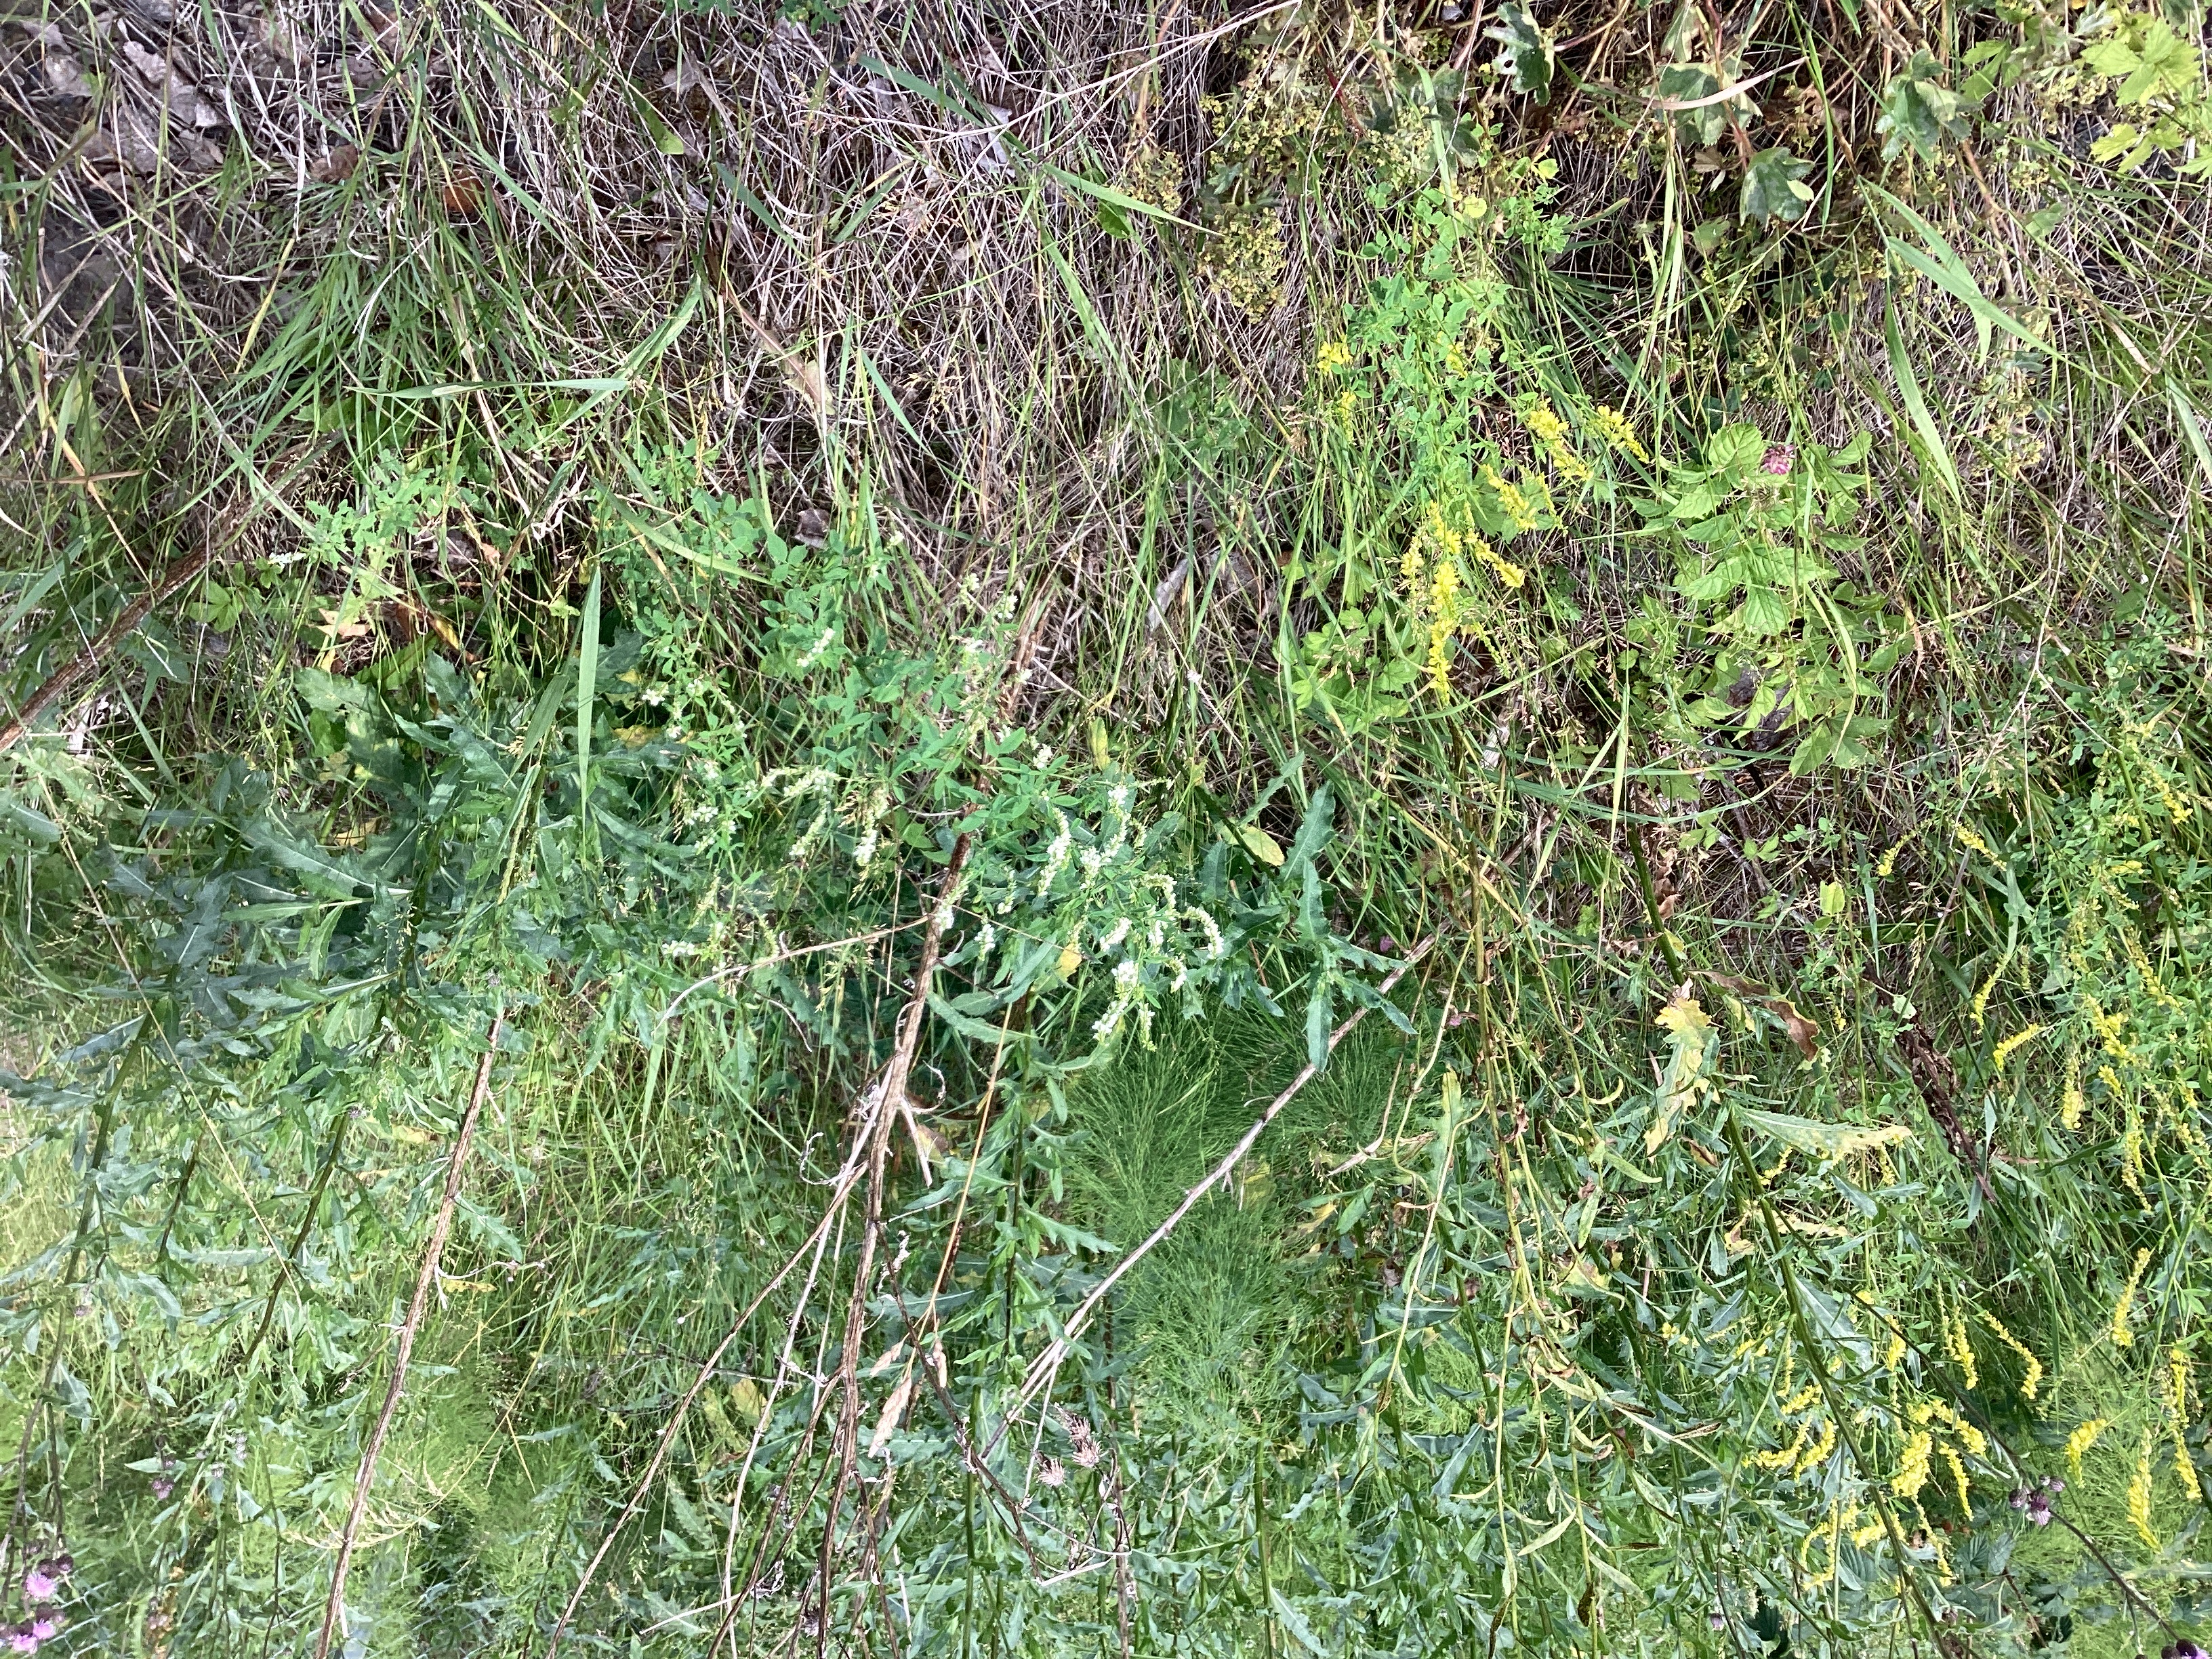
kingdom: Plantae
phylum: Tracheophyta
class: Magnoliopsida
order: Fabales
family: Fabaceae
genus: Melilotus
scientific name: Melilotus albus
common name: hvitsteinkløver
